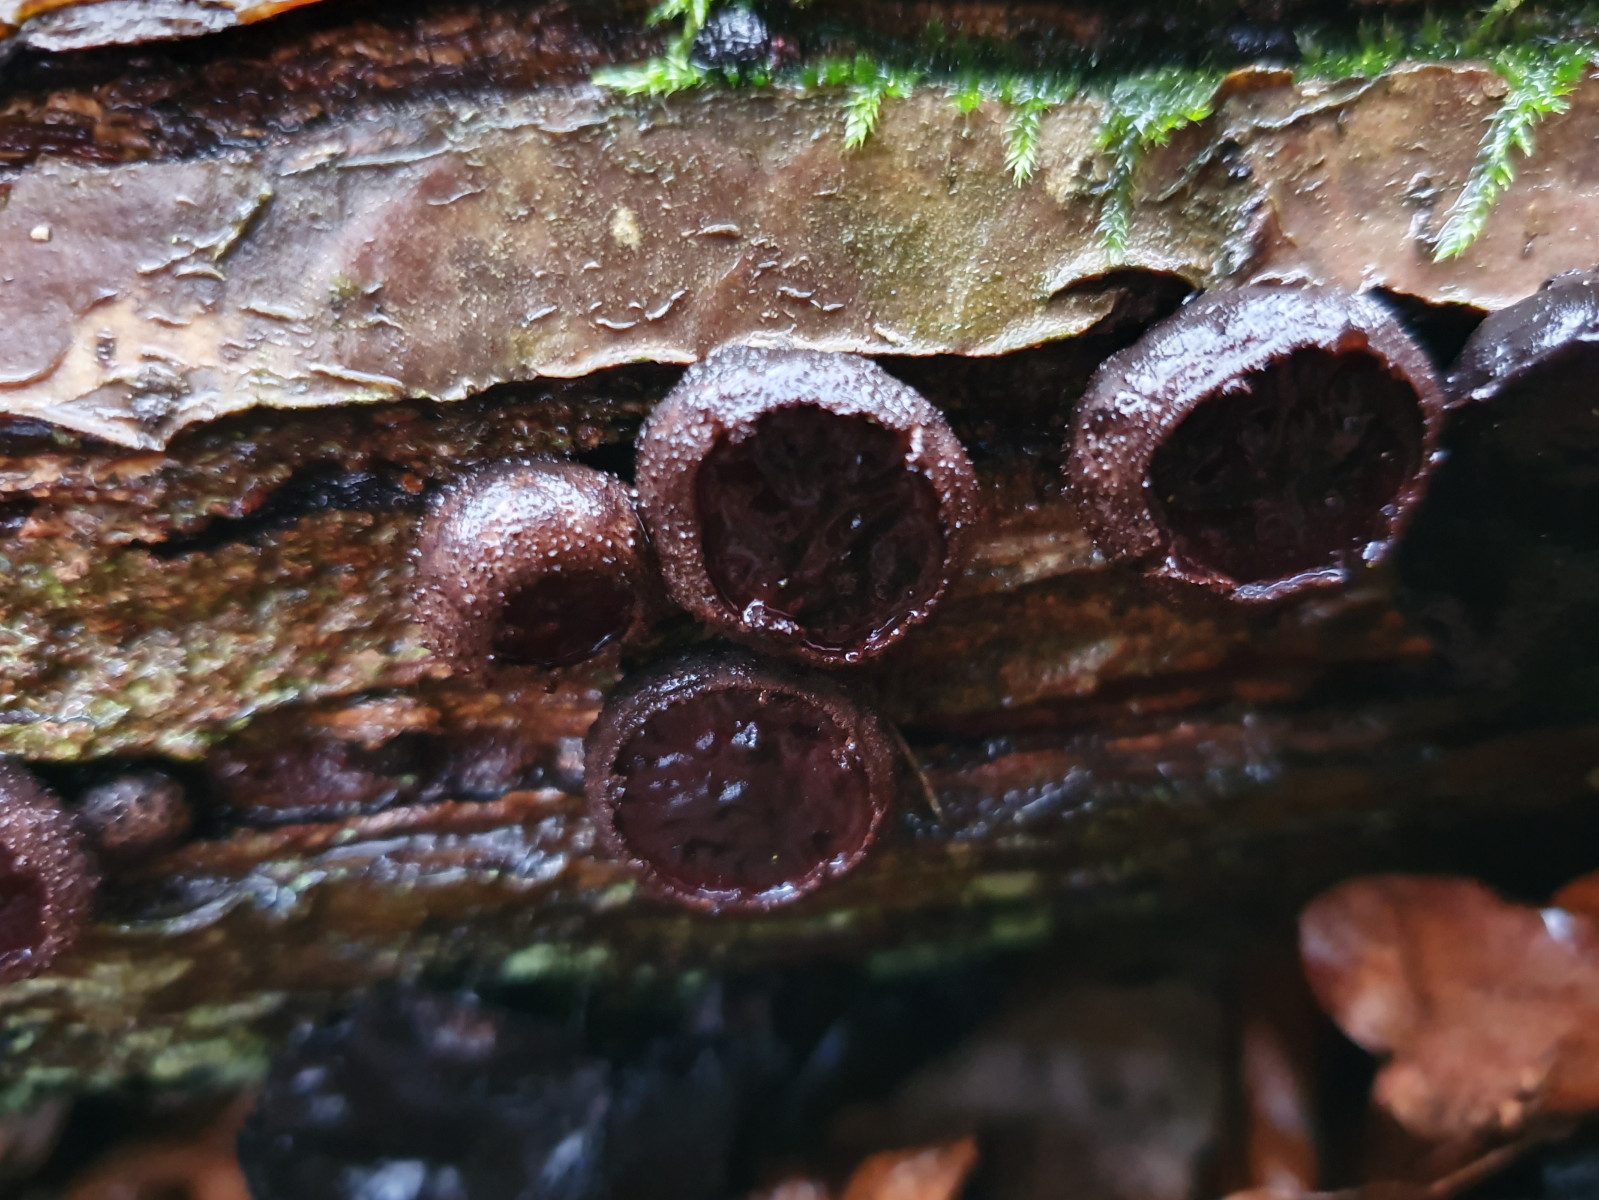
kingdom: Fungi
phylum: Ascomycota
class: Leotiomycetes
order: Phacidiales
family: Phacidiaceae
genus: Bulgaria
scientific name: Bulgaria inquinans
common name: afsmittende topsvamp
